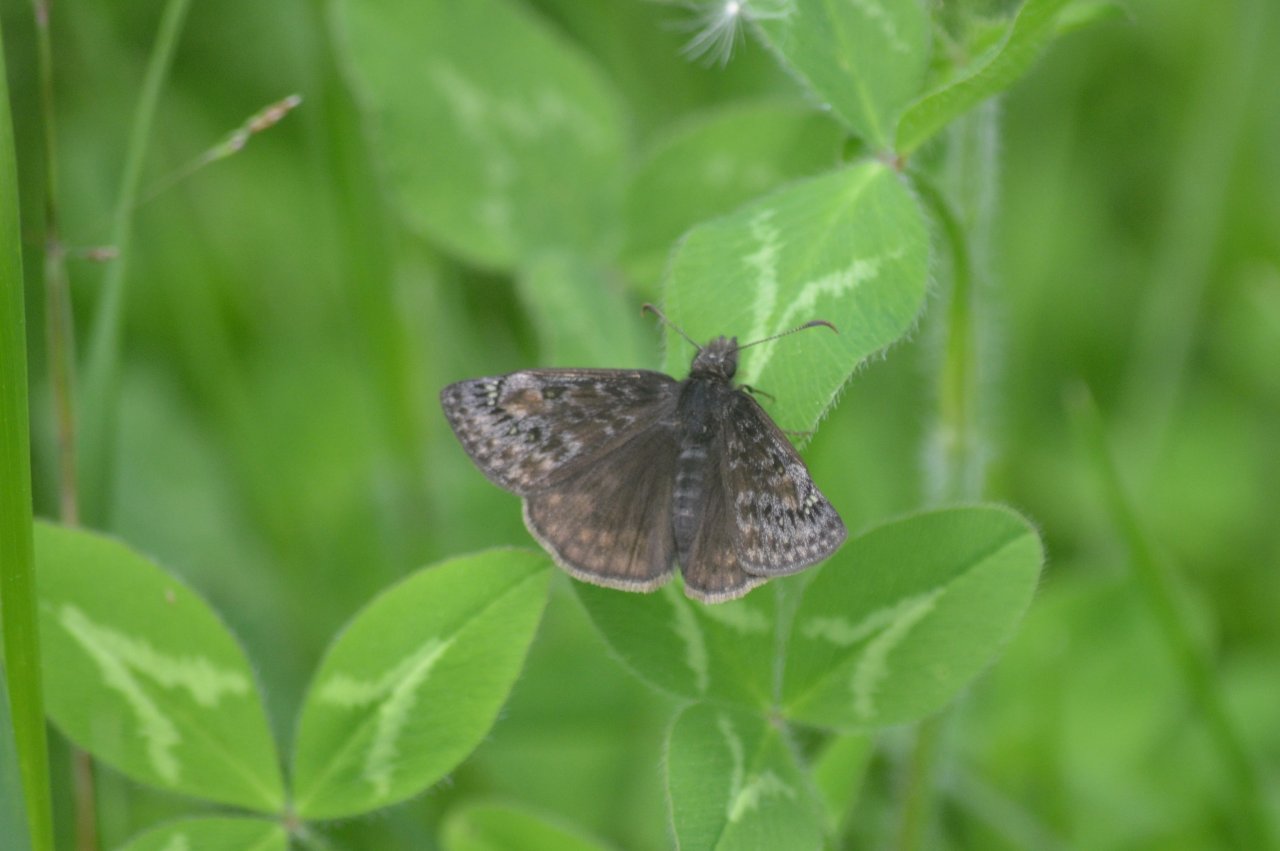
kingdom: Animalia
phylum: Arthropoda
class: Insecta
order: Lepidoptera
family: Hesperiidae
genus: Gesta
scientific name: Gesta
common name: Juvenal's Duskywing
